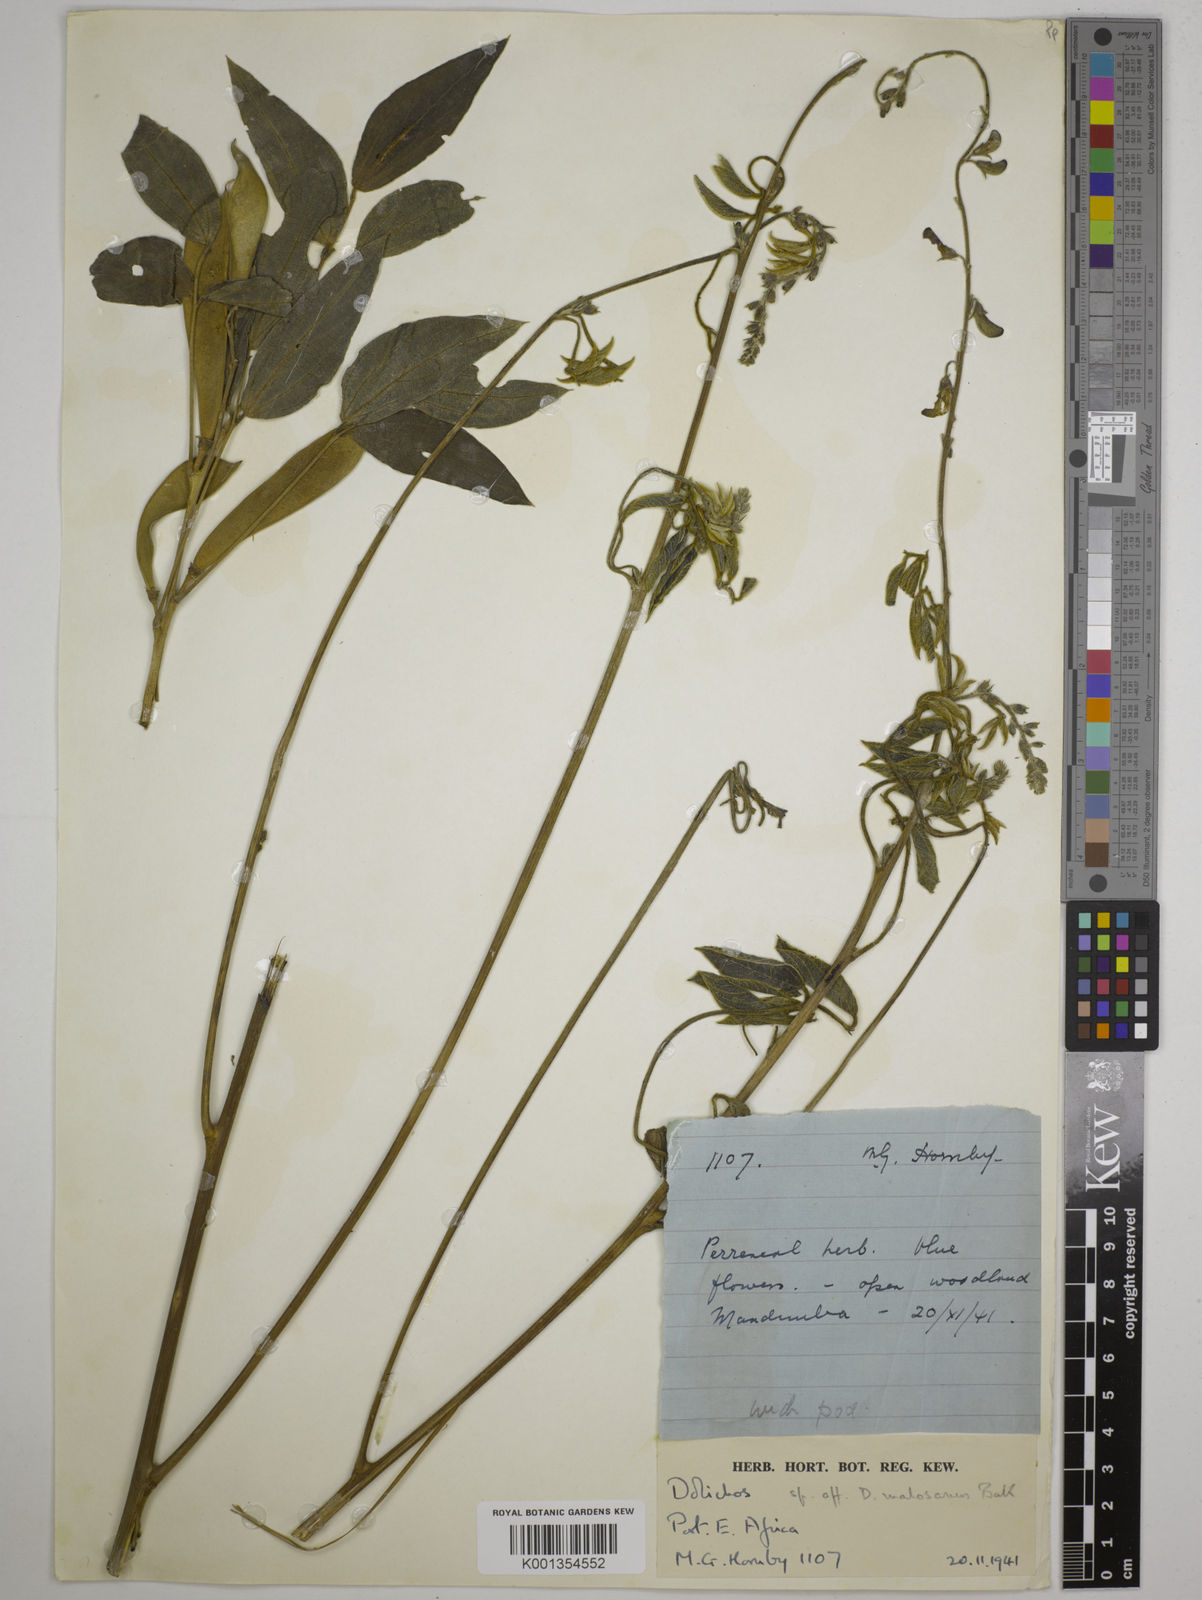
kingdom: Plantae
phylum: Tracheophyta
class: Magnoliopsida
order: Fabales
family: Fabaceae
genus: Dolichos
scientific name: Dolichos kilimandscharicus
